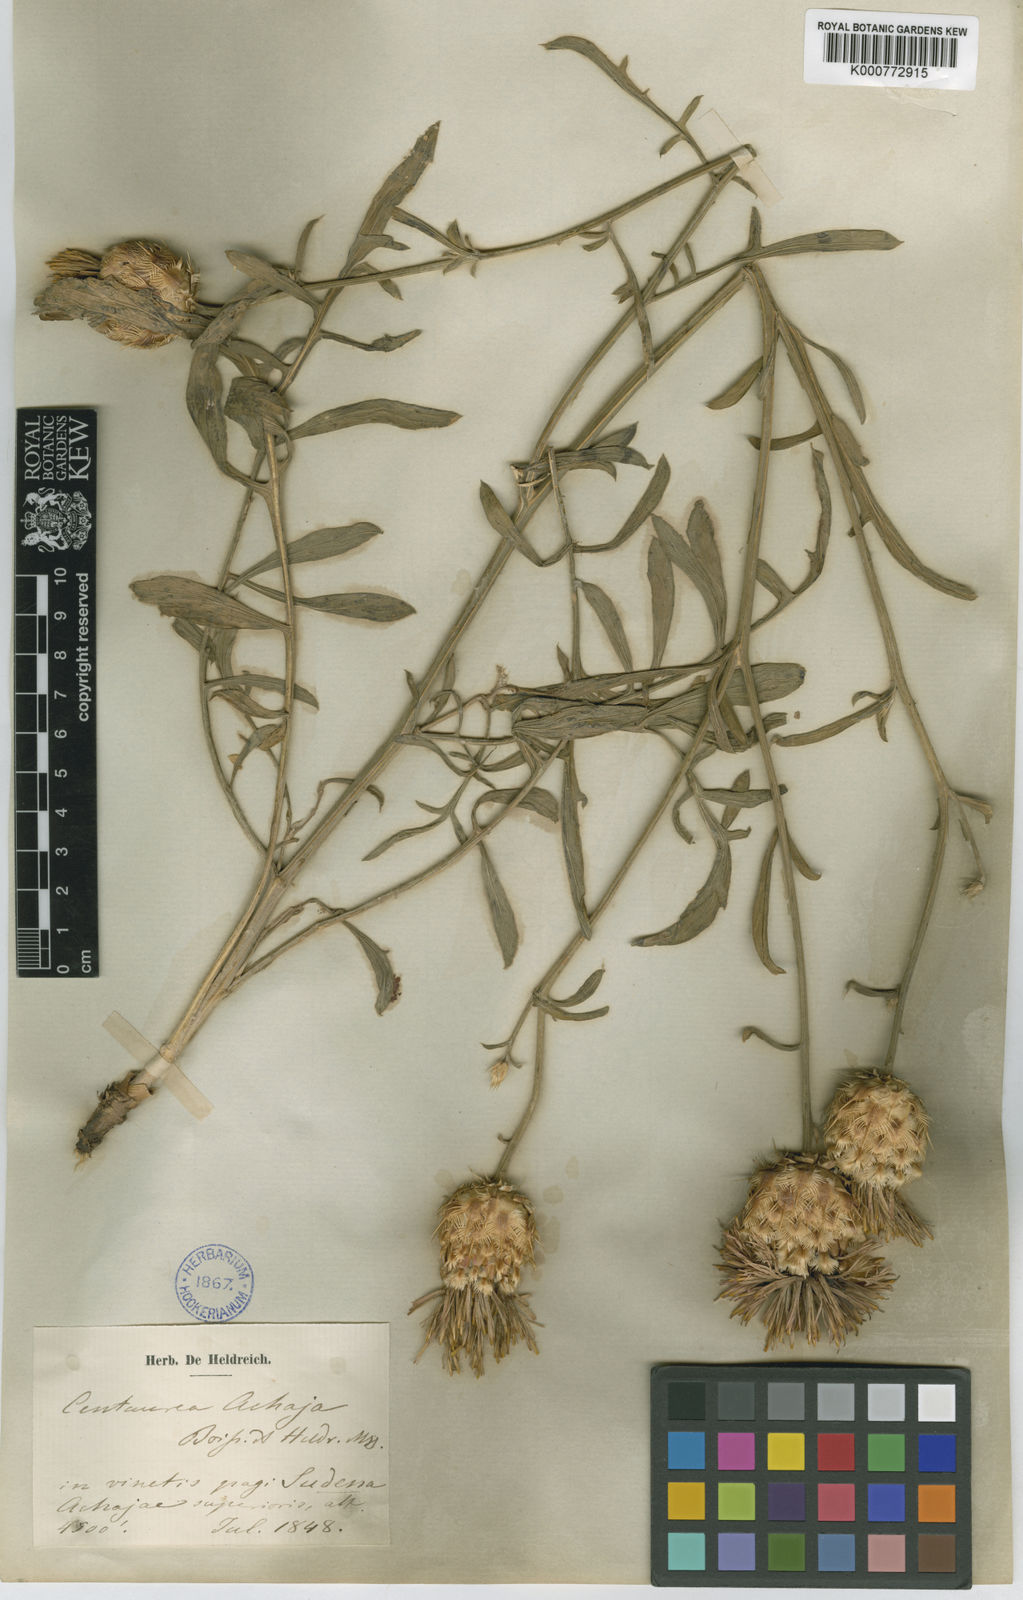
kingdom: Plantae
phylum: Tracheophyta
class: Magnoliopsida
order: Asterales
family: Asteraceae
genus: Centaurea
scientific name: Centaurea achaia
